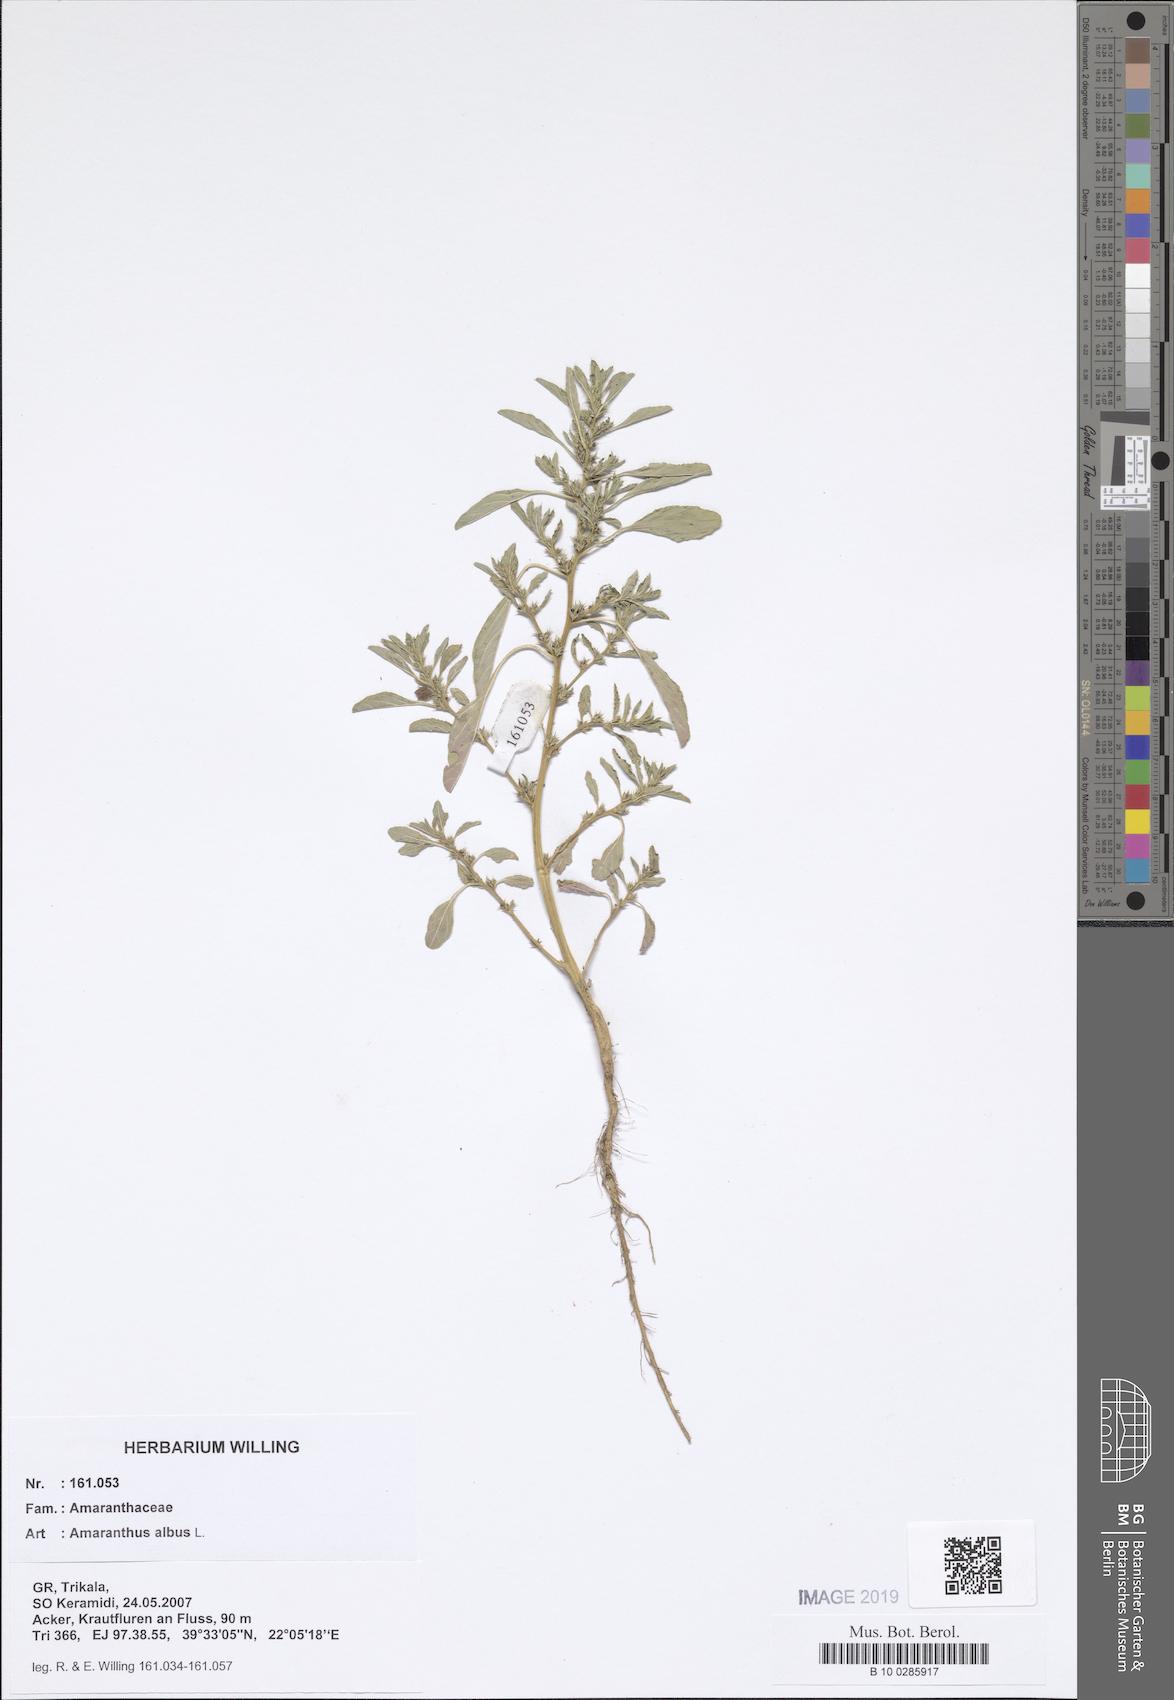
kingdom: Plantae
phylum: Tracheophyta
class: Magnoliopsida
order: Caryophyllales
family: Amaranthaceae
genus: Amaranthus
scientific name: Amaranthus albus
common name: White pigweed
